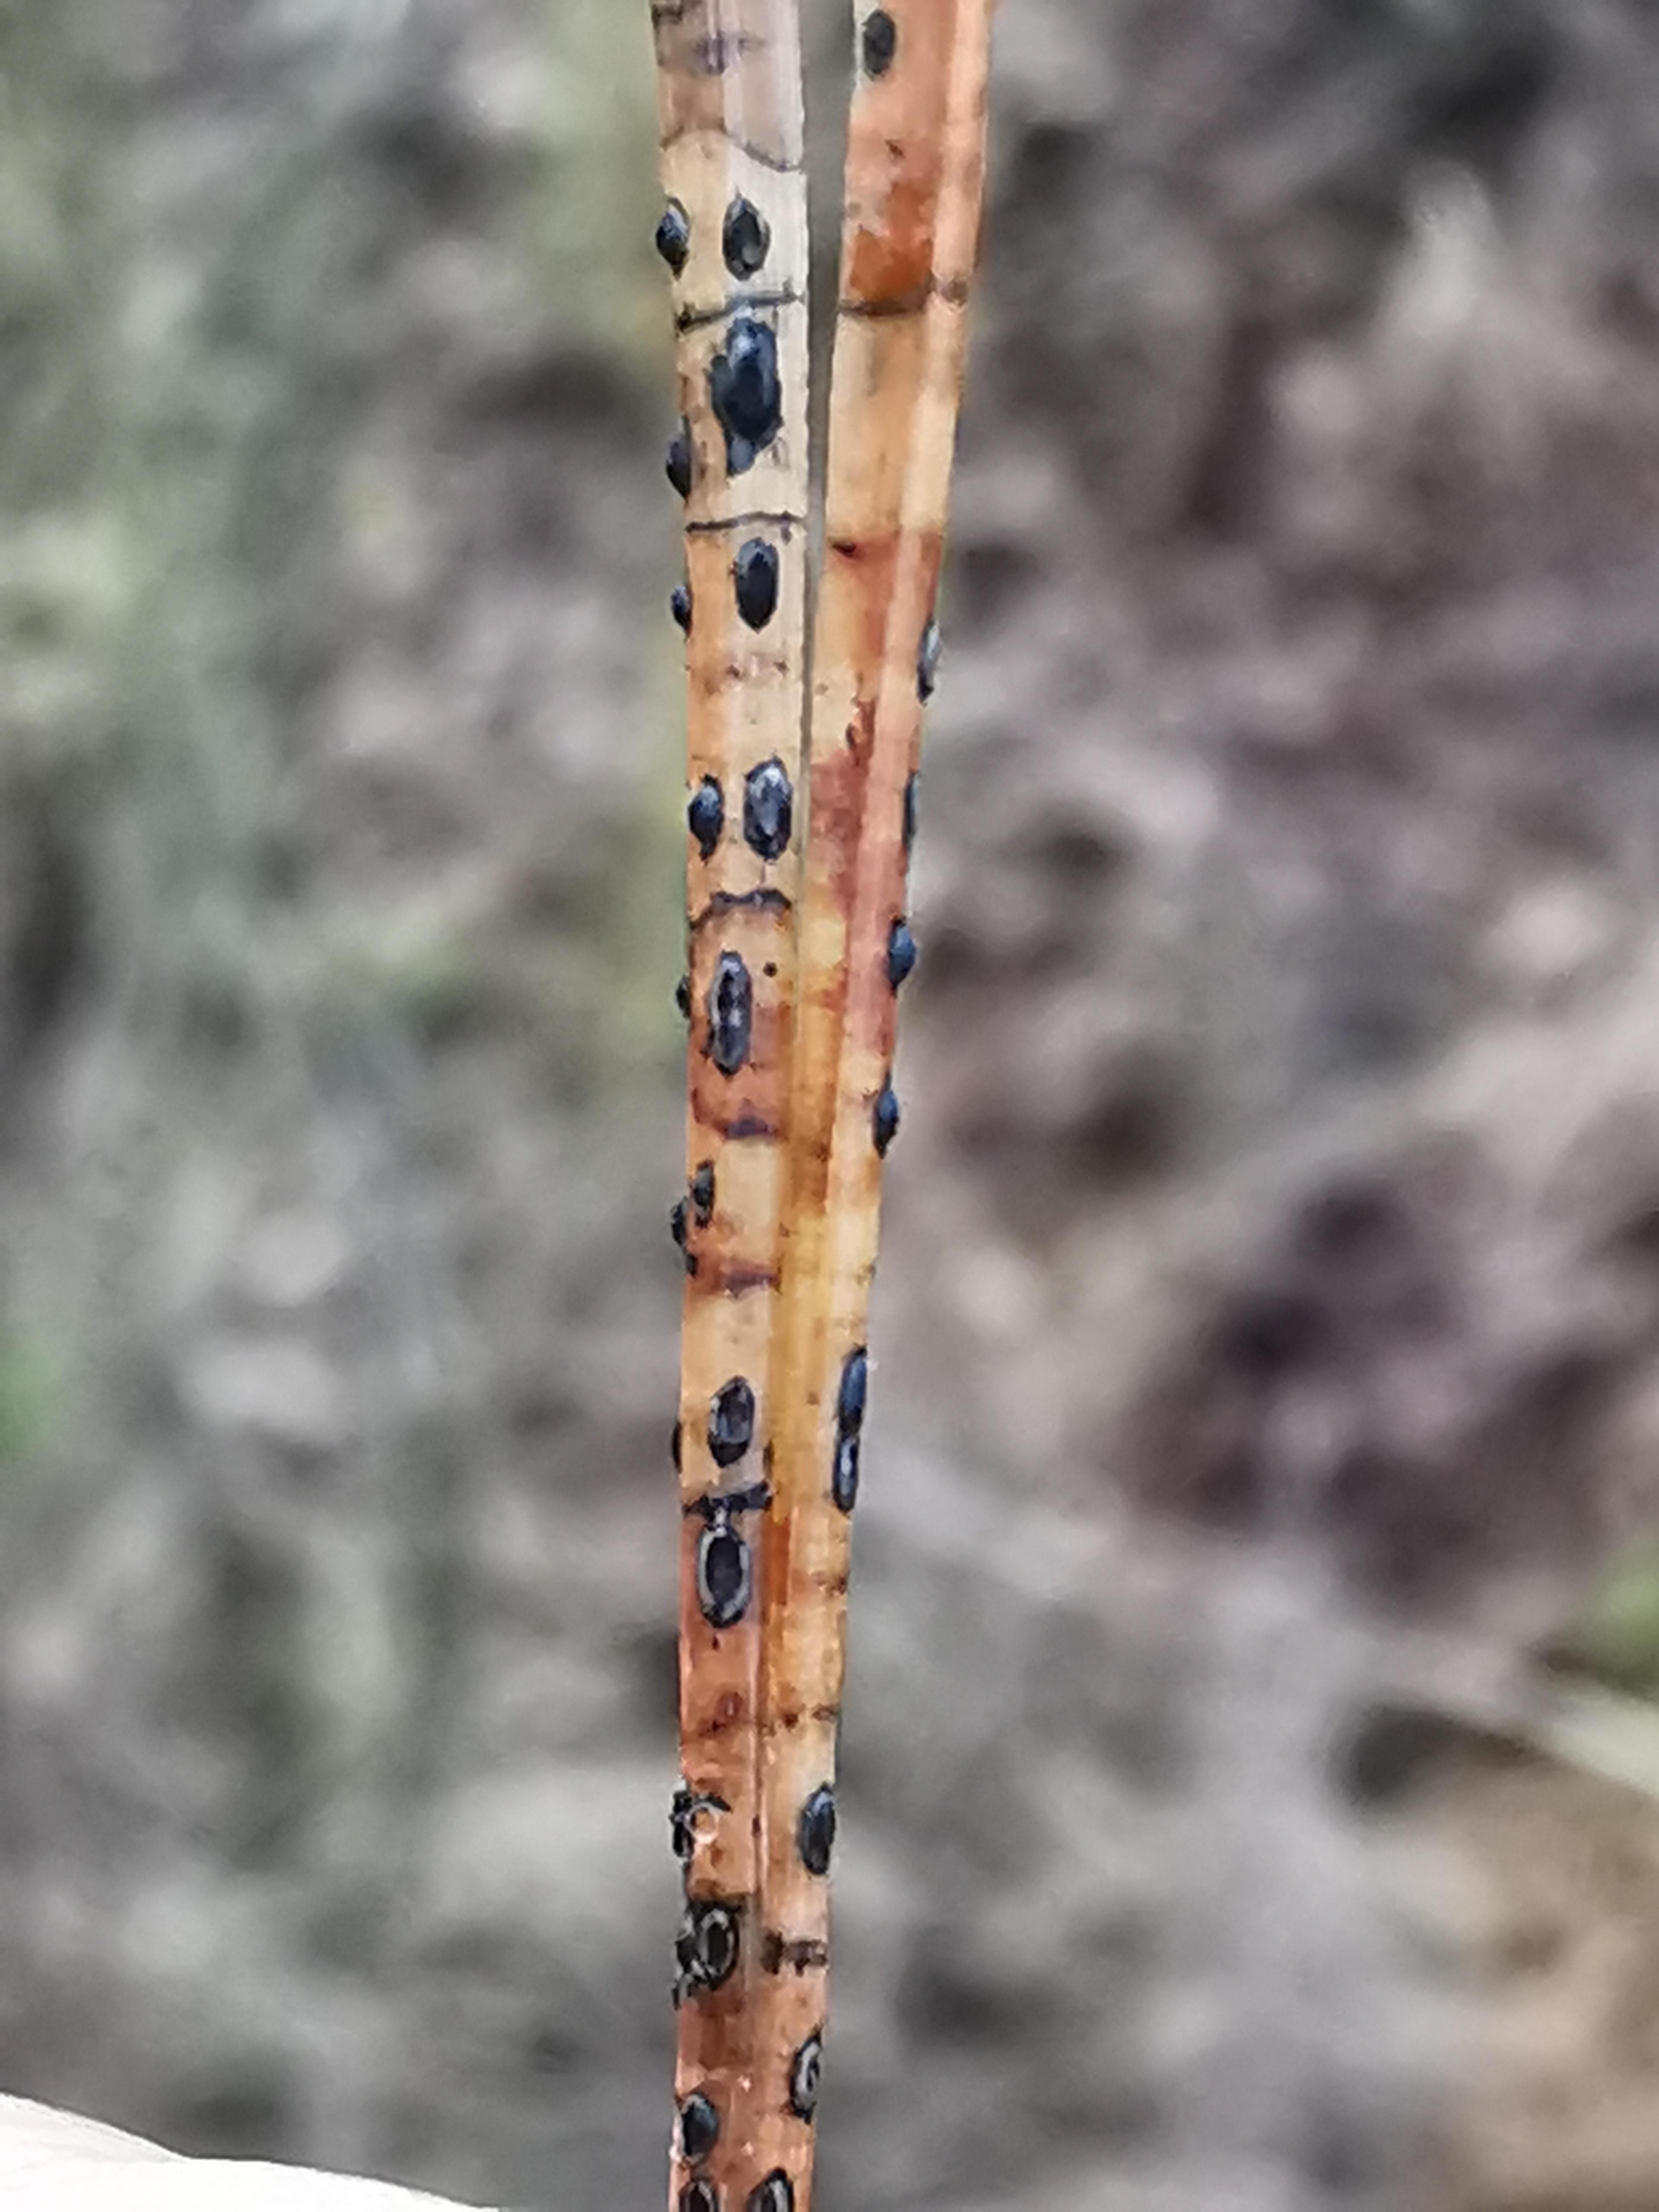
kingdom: Fungi
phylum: Ascomycota
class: Leotiomycetes
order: Rhytismatales
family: Rhytismataceae
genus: Lophodermium
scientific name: Lophodermium pinastri
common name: fyrre-fureplet
